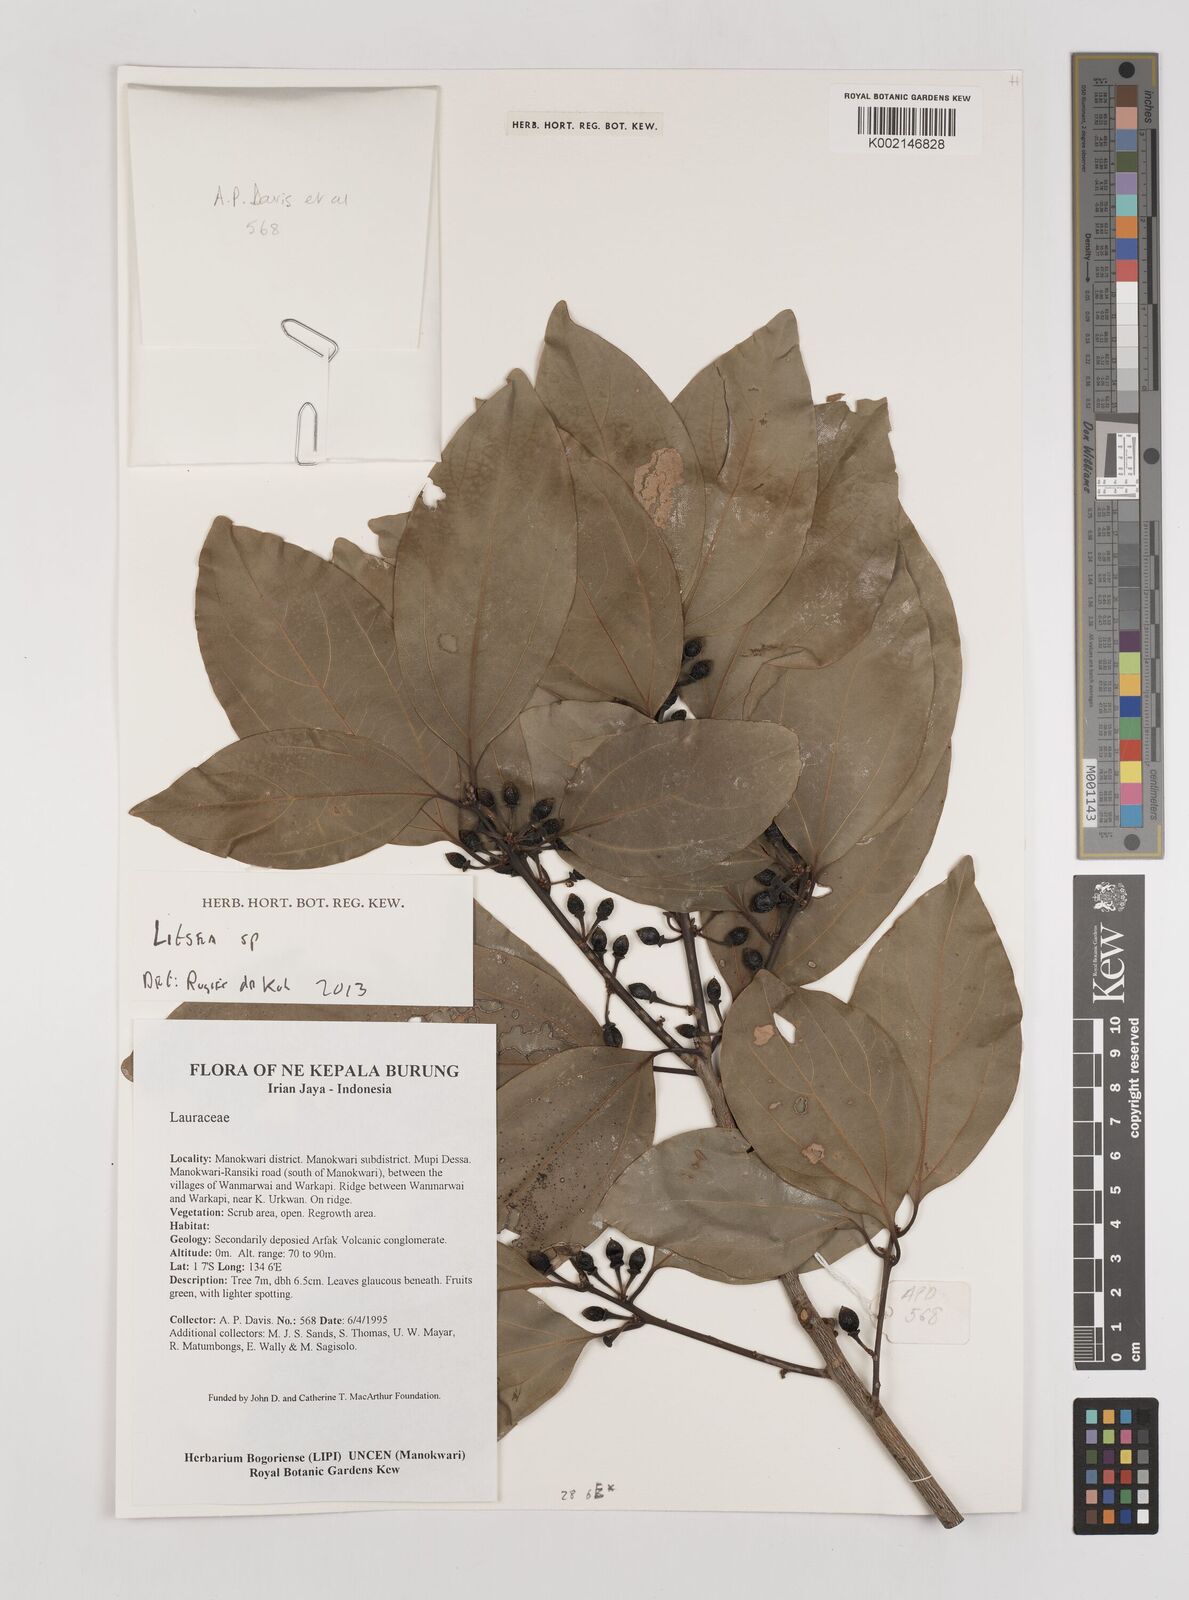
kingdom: Plantae
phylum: Tracheophyta
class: Magnoliopsida
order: Laurales
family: Lauraceae
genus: Litsea
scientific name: Litsea
